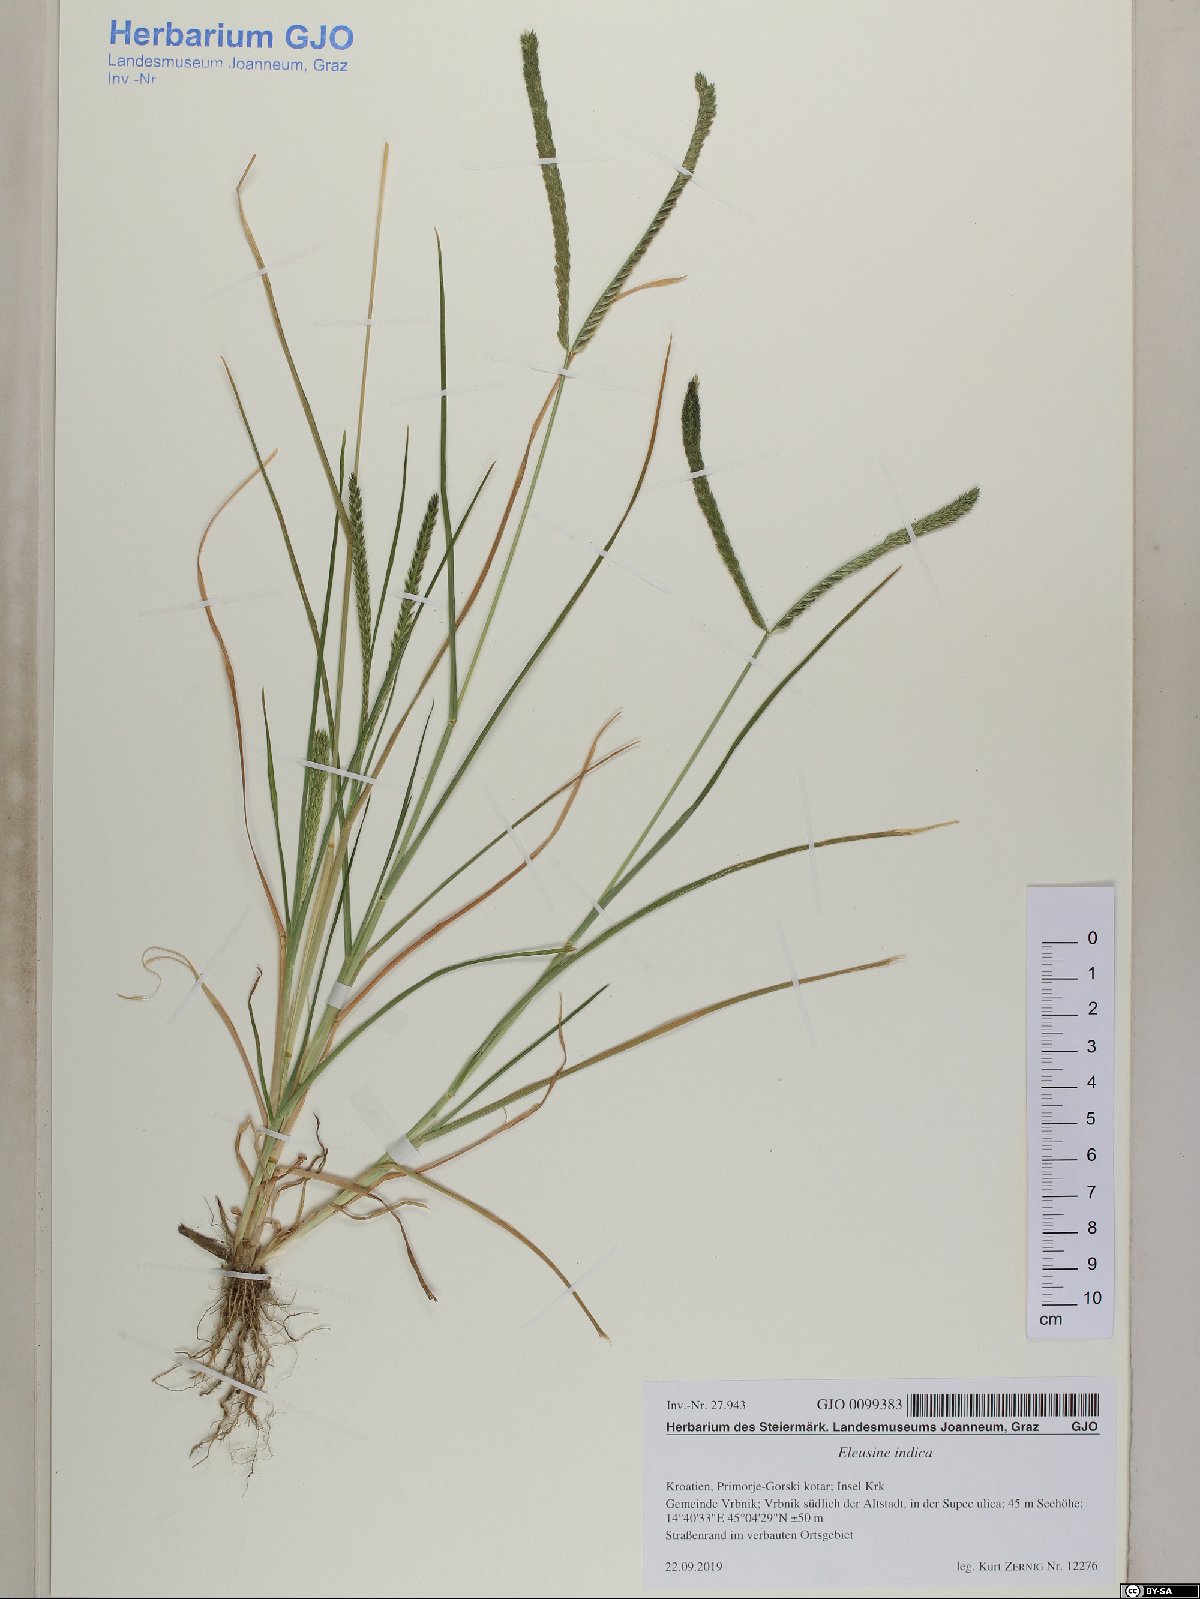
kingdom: Plantae
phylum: Tracheophyta
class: Liliopsida
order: Poales
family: Poaceae
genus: Eleusine
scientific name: Eleusine indica
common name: Yard-grass
